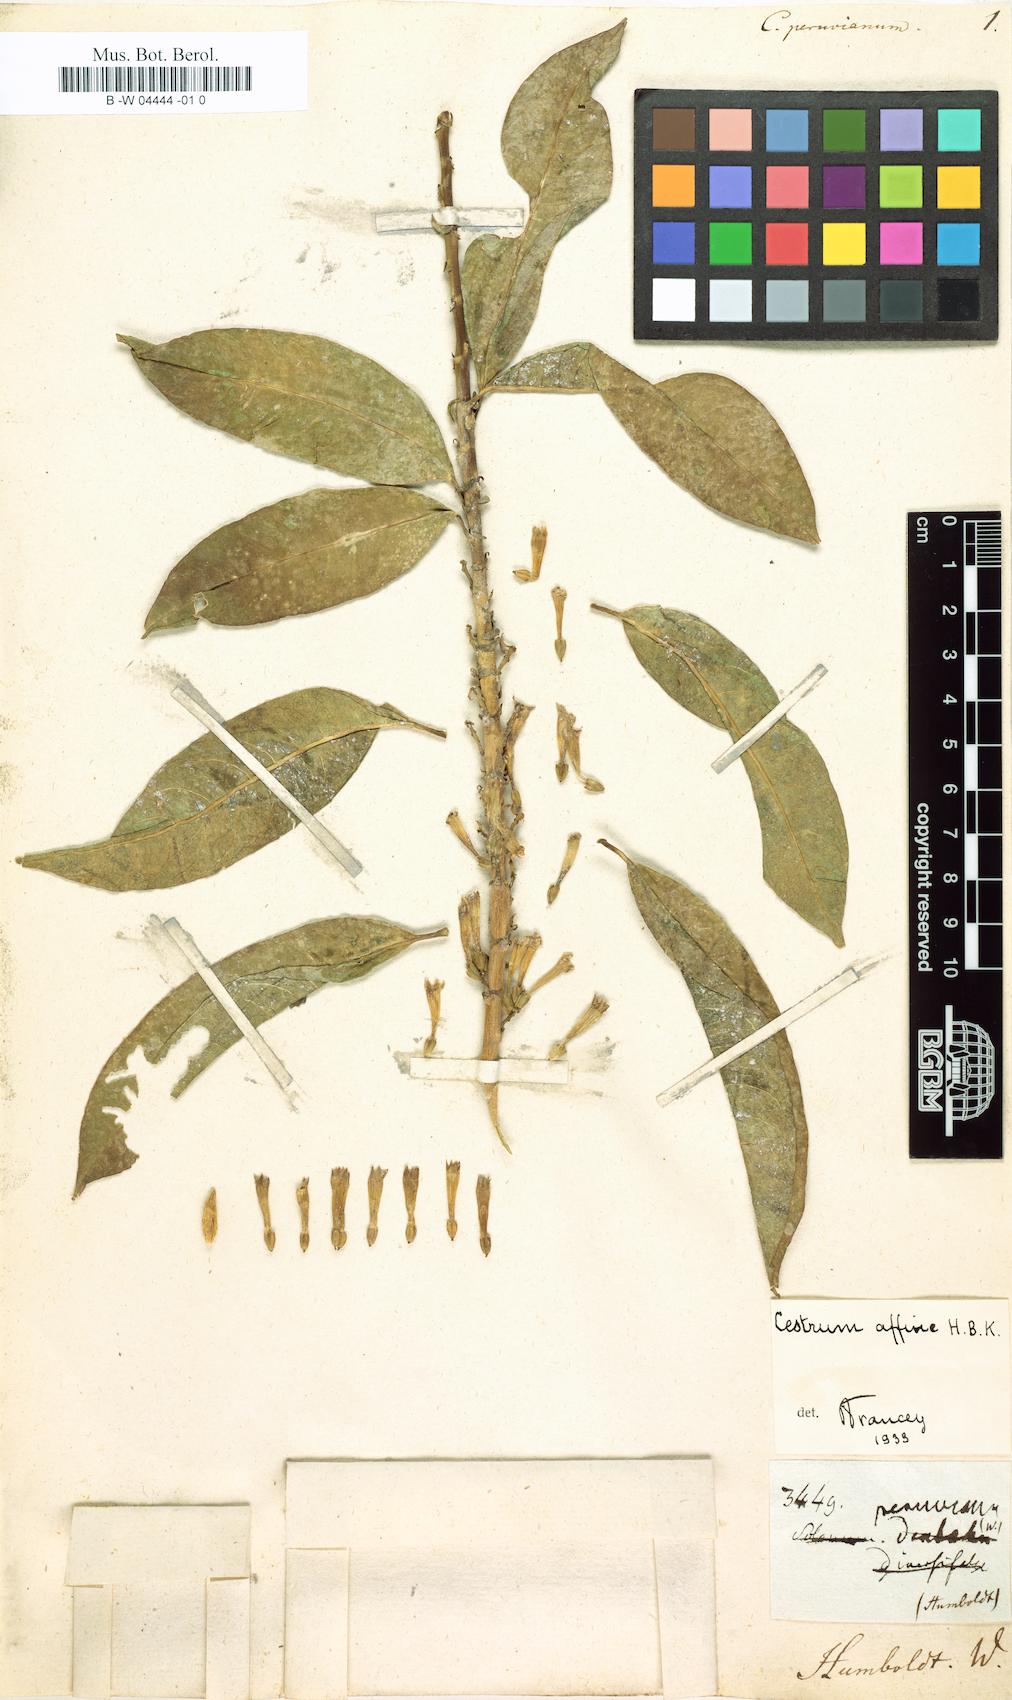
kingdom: Plantae
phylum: Tracheophyta
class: Magnoliopsida
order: Solanales
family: Solanaceae
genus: Cestrum
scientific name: Cestrum peruvianum
